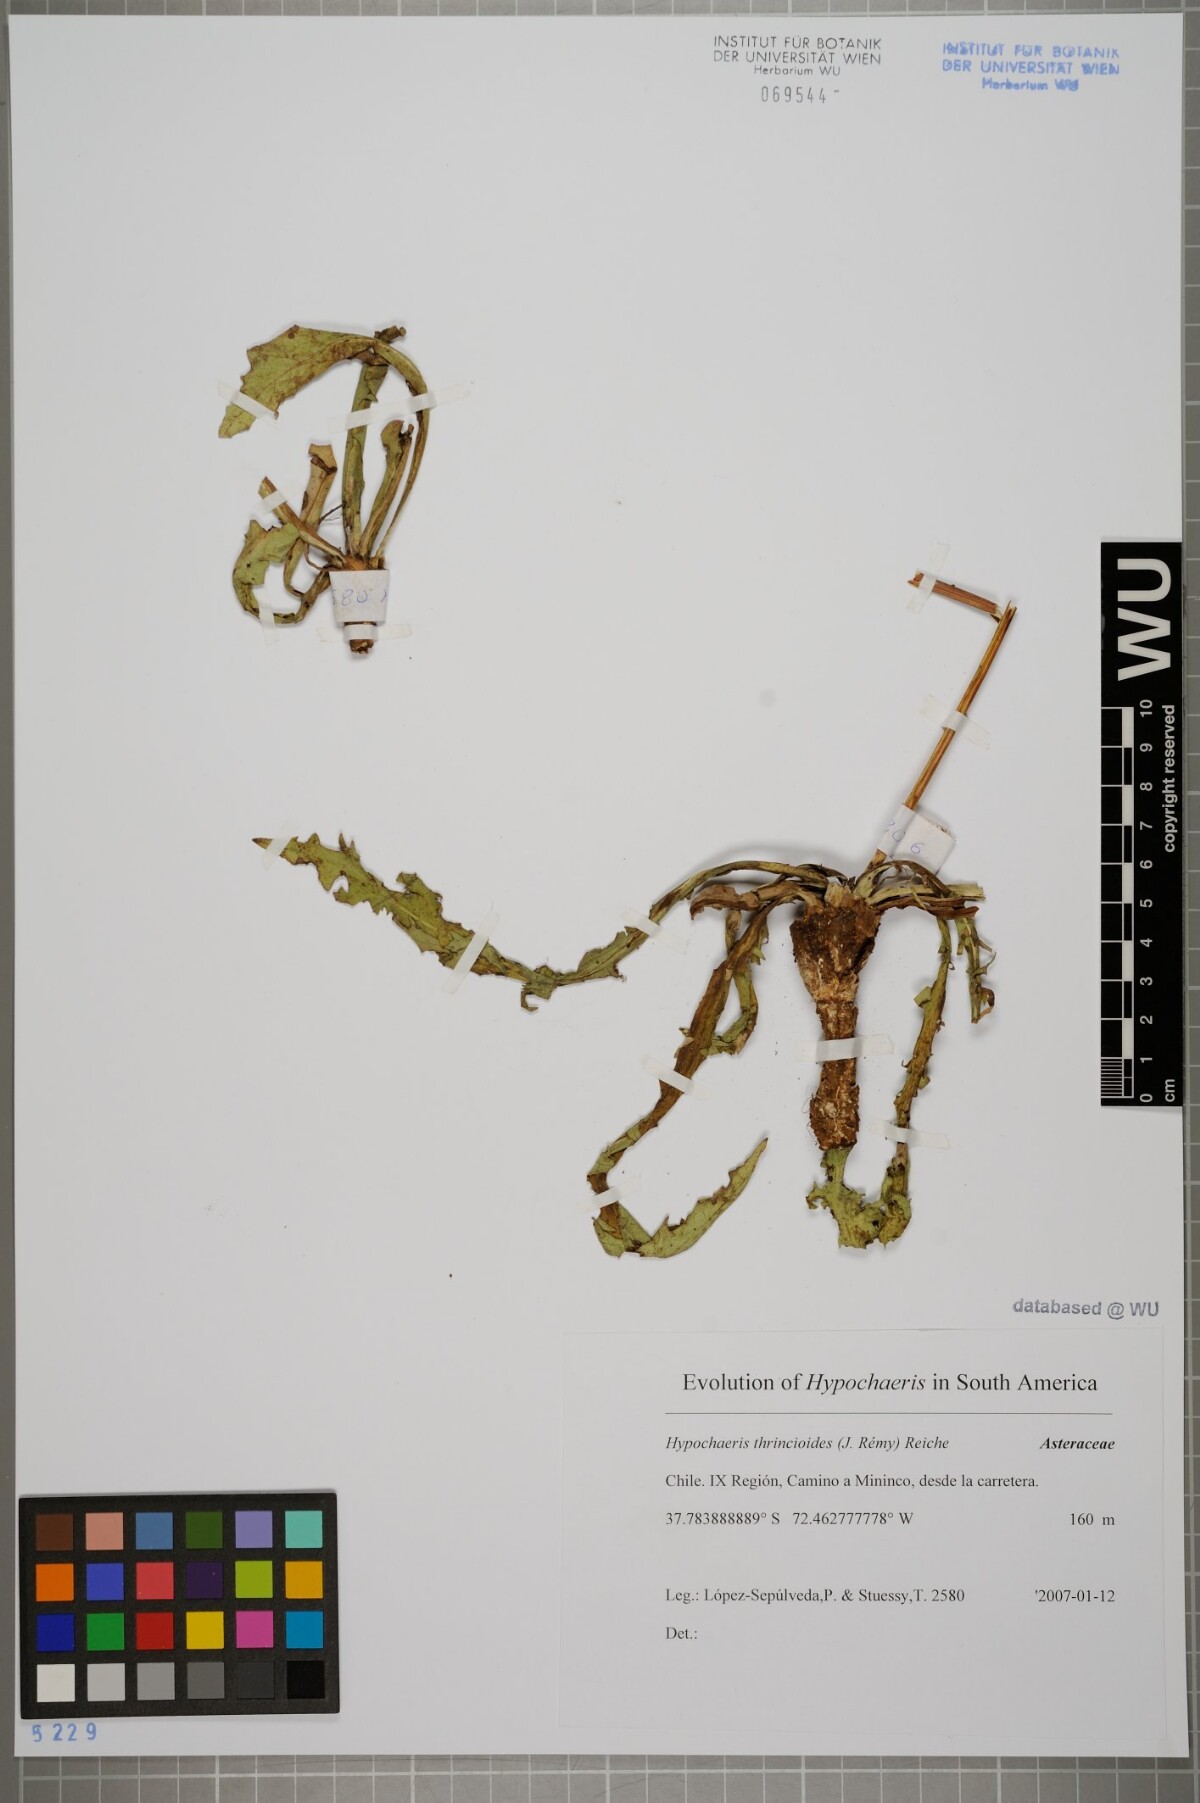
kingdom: Plantae
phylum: Tracheophyta
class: Magnoliopsida
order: Asterales
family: Asteraceae
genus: Hypochaeris
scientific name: Hypochaeris apargioides
